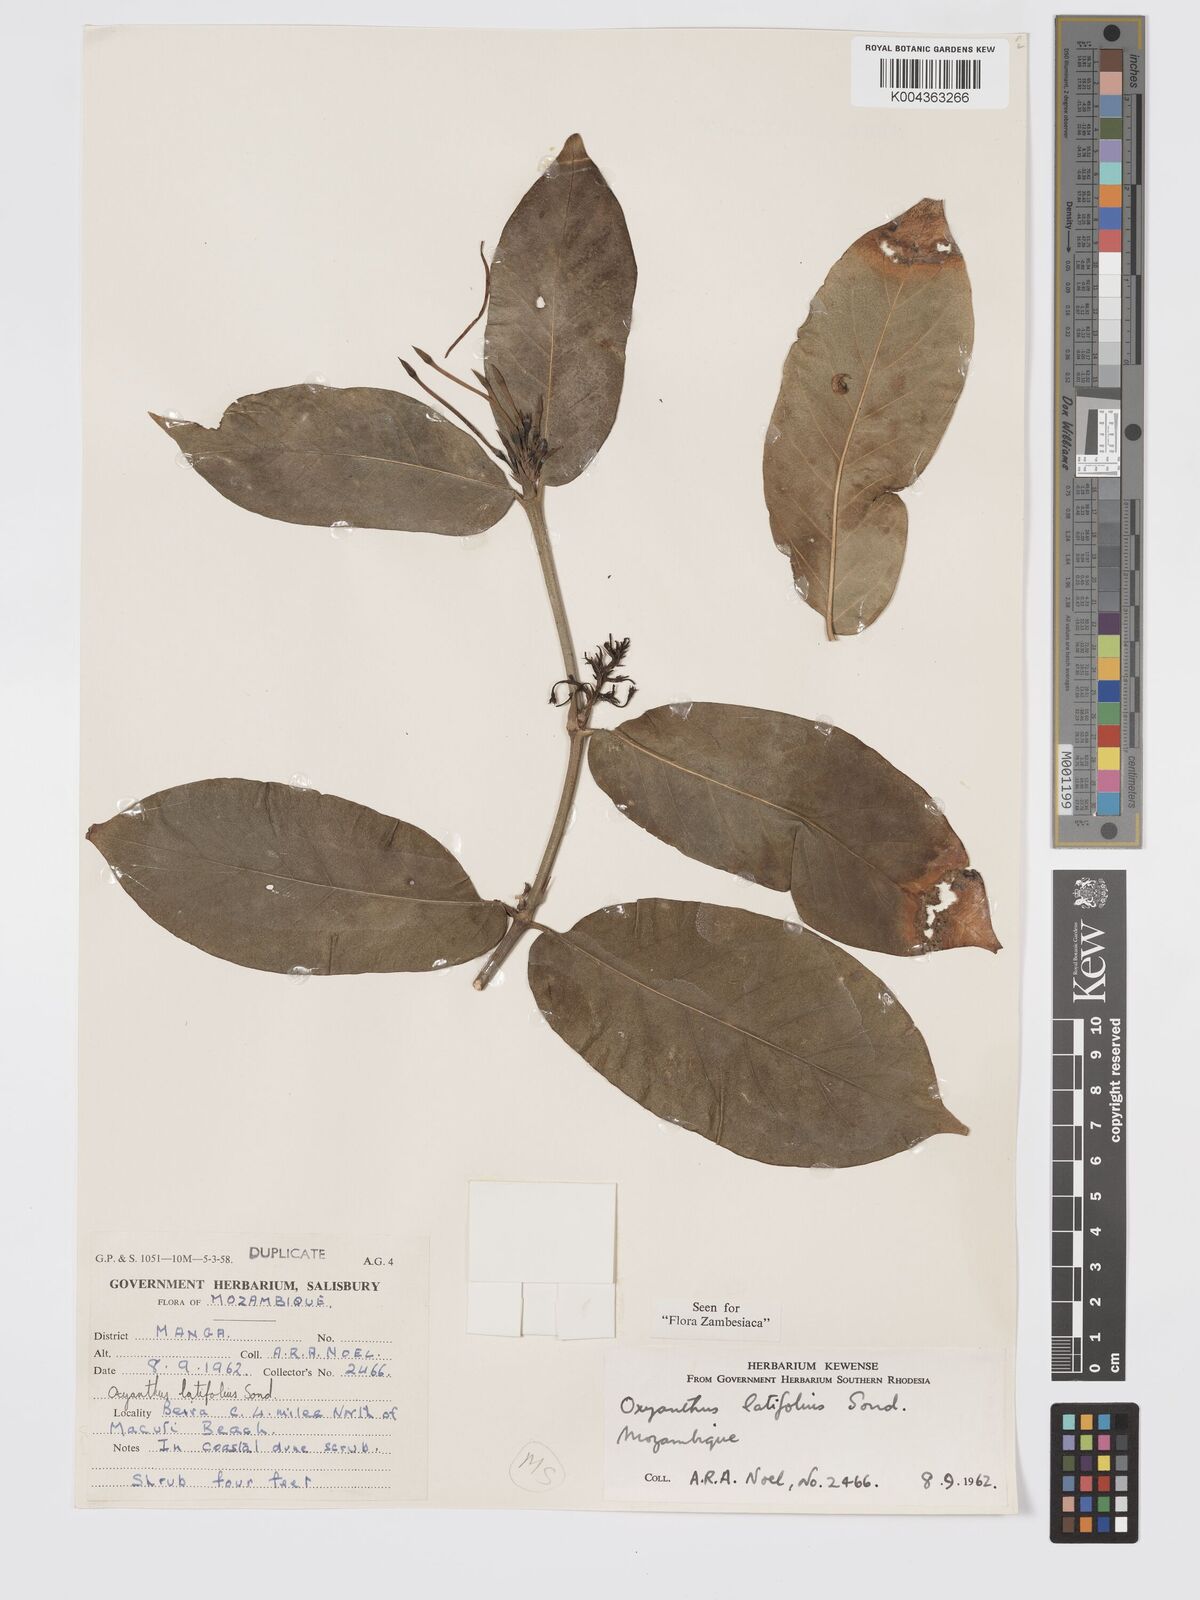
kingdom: Plantae
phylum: Tracheophyta
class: Magnoliopsida
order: Gentianales
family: Rubiaceae
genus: Oxyanthus
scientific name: Oxyanthus latifolius
